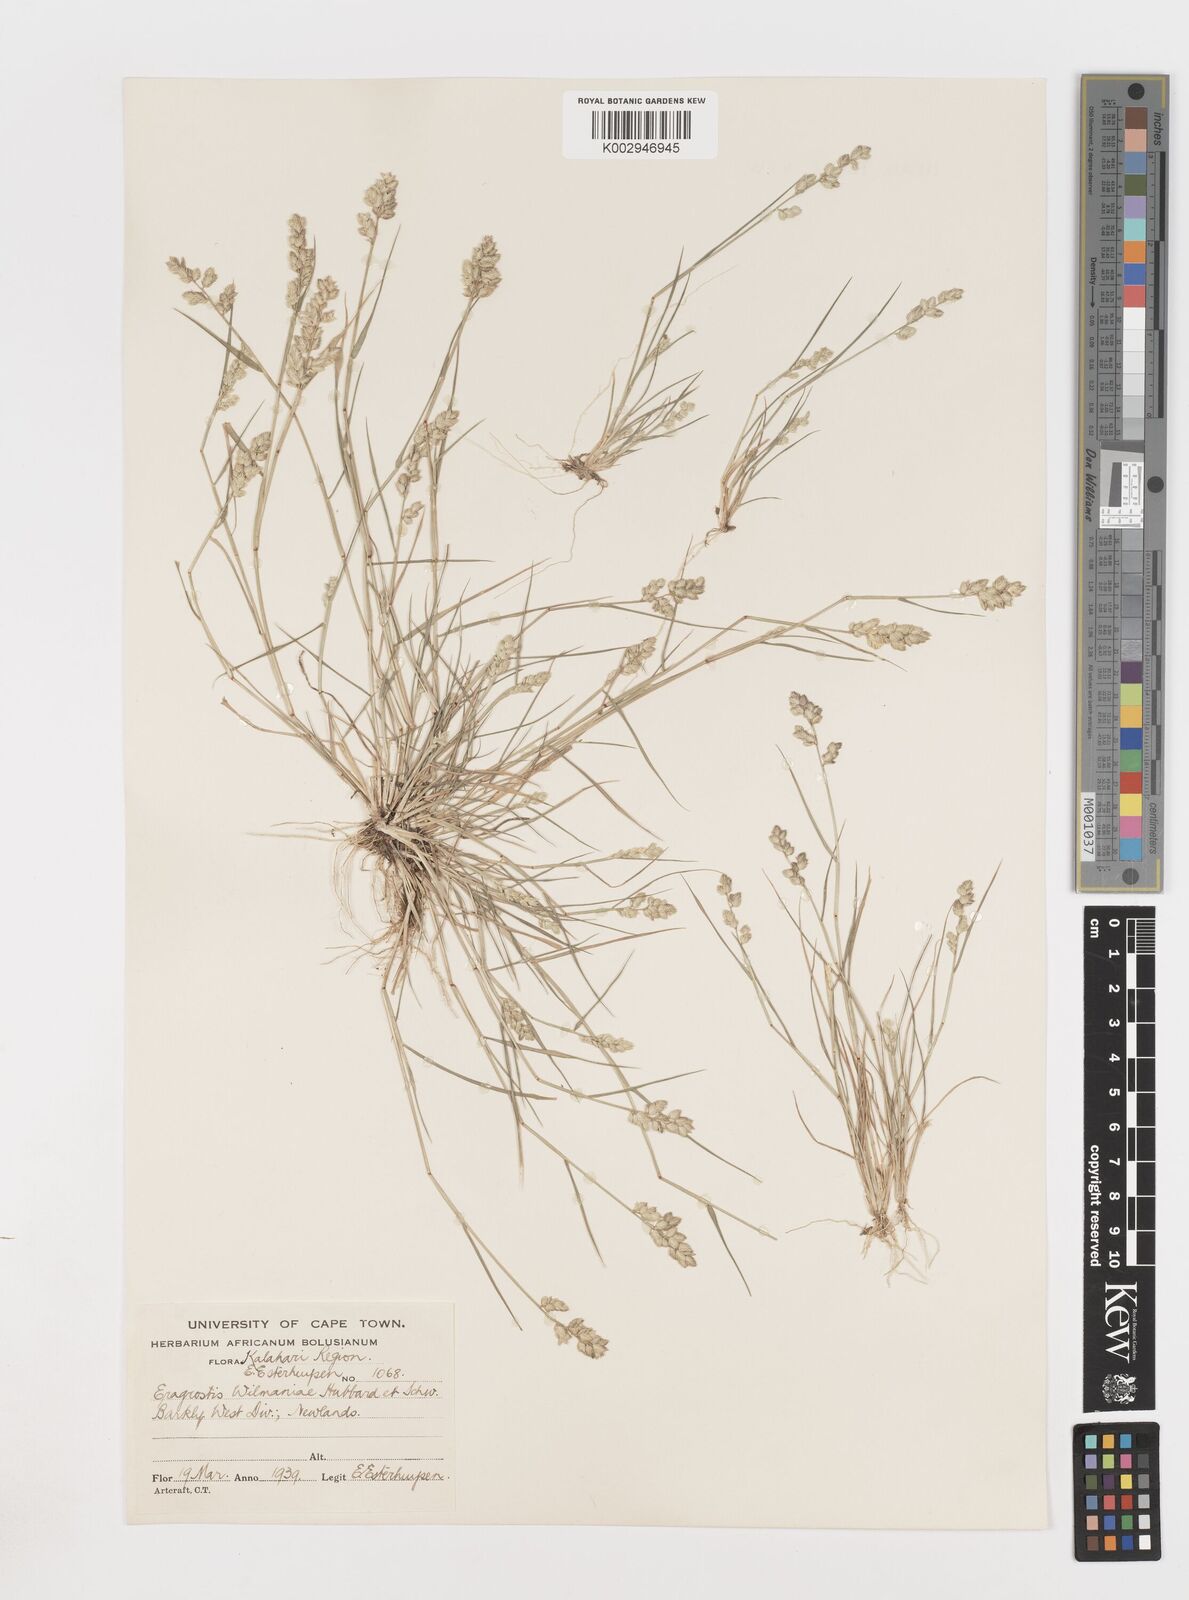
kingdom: Plantae
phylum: Tracheophyta
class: Liliopsida
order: Poales
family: Poaceae
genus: Eragrostis
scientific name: Eragrostis
